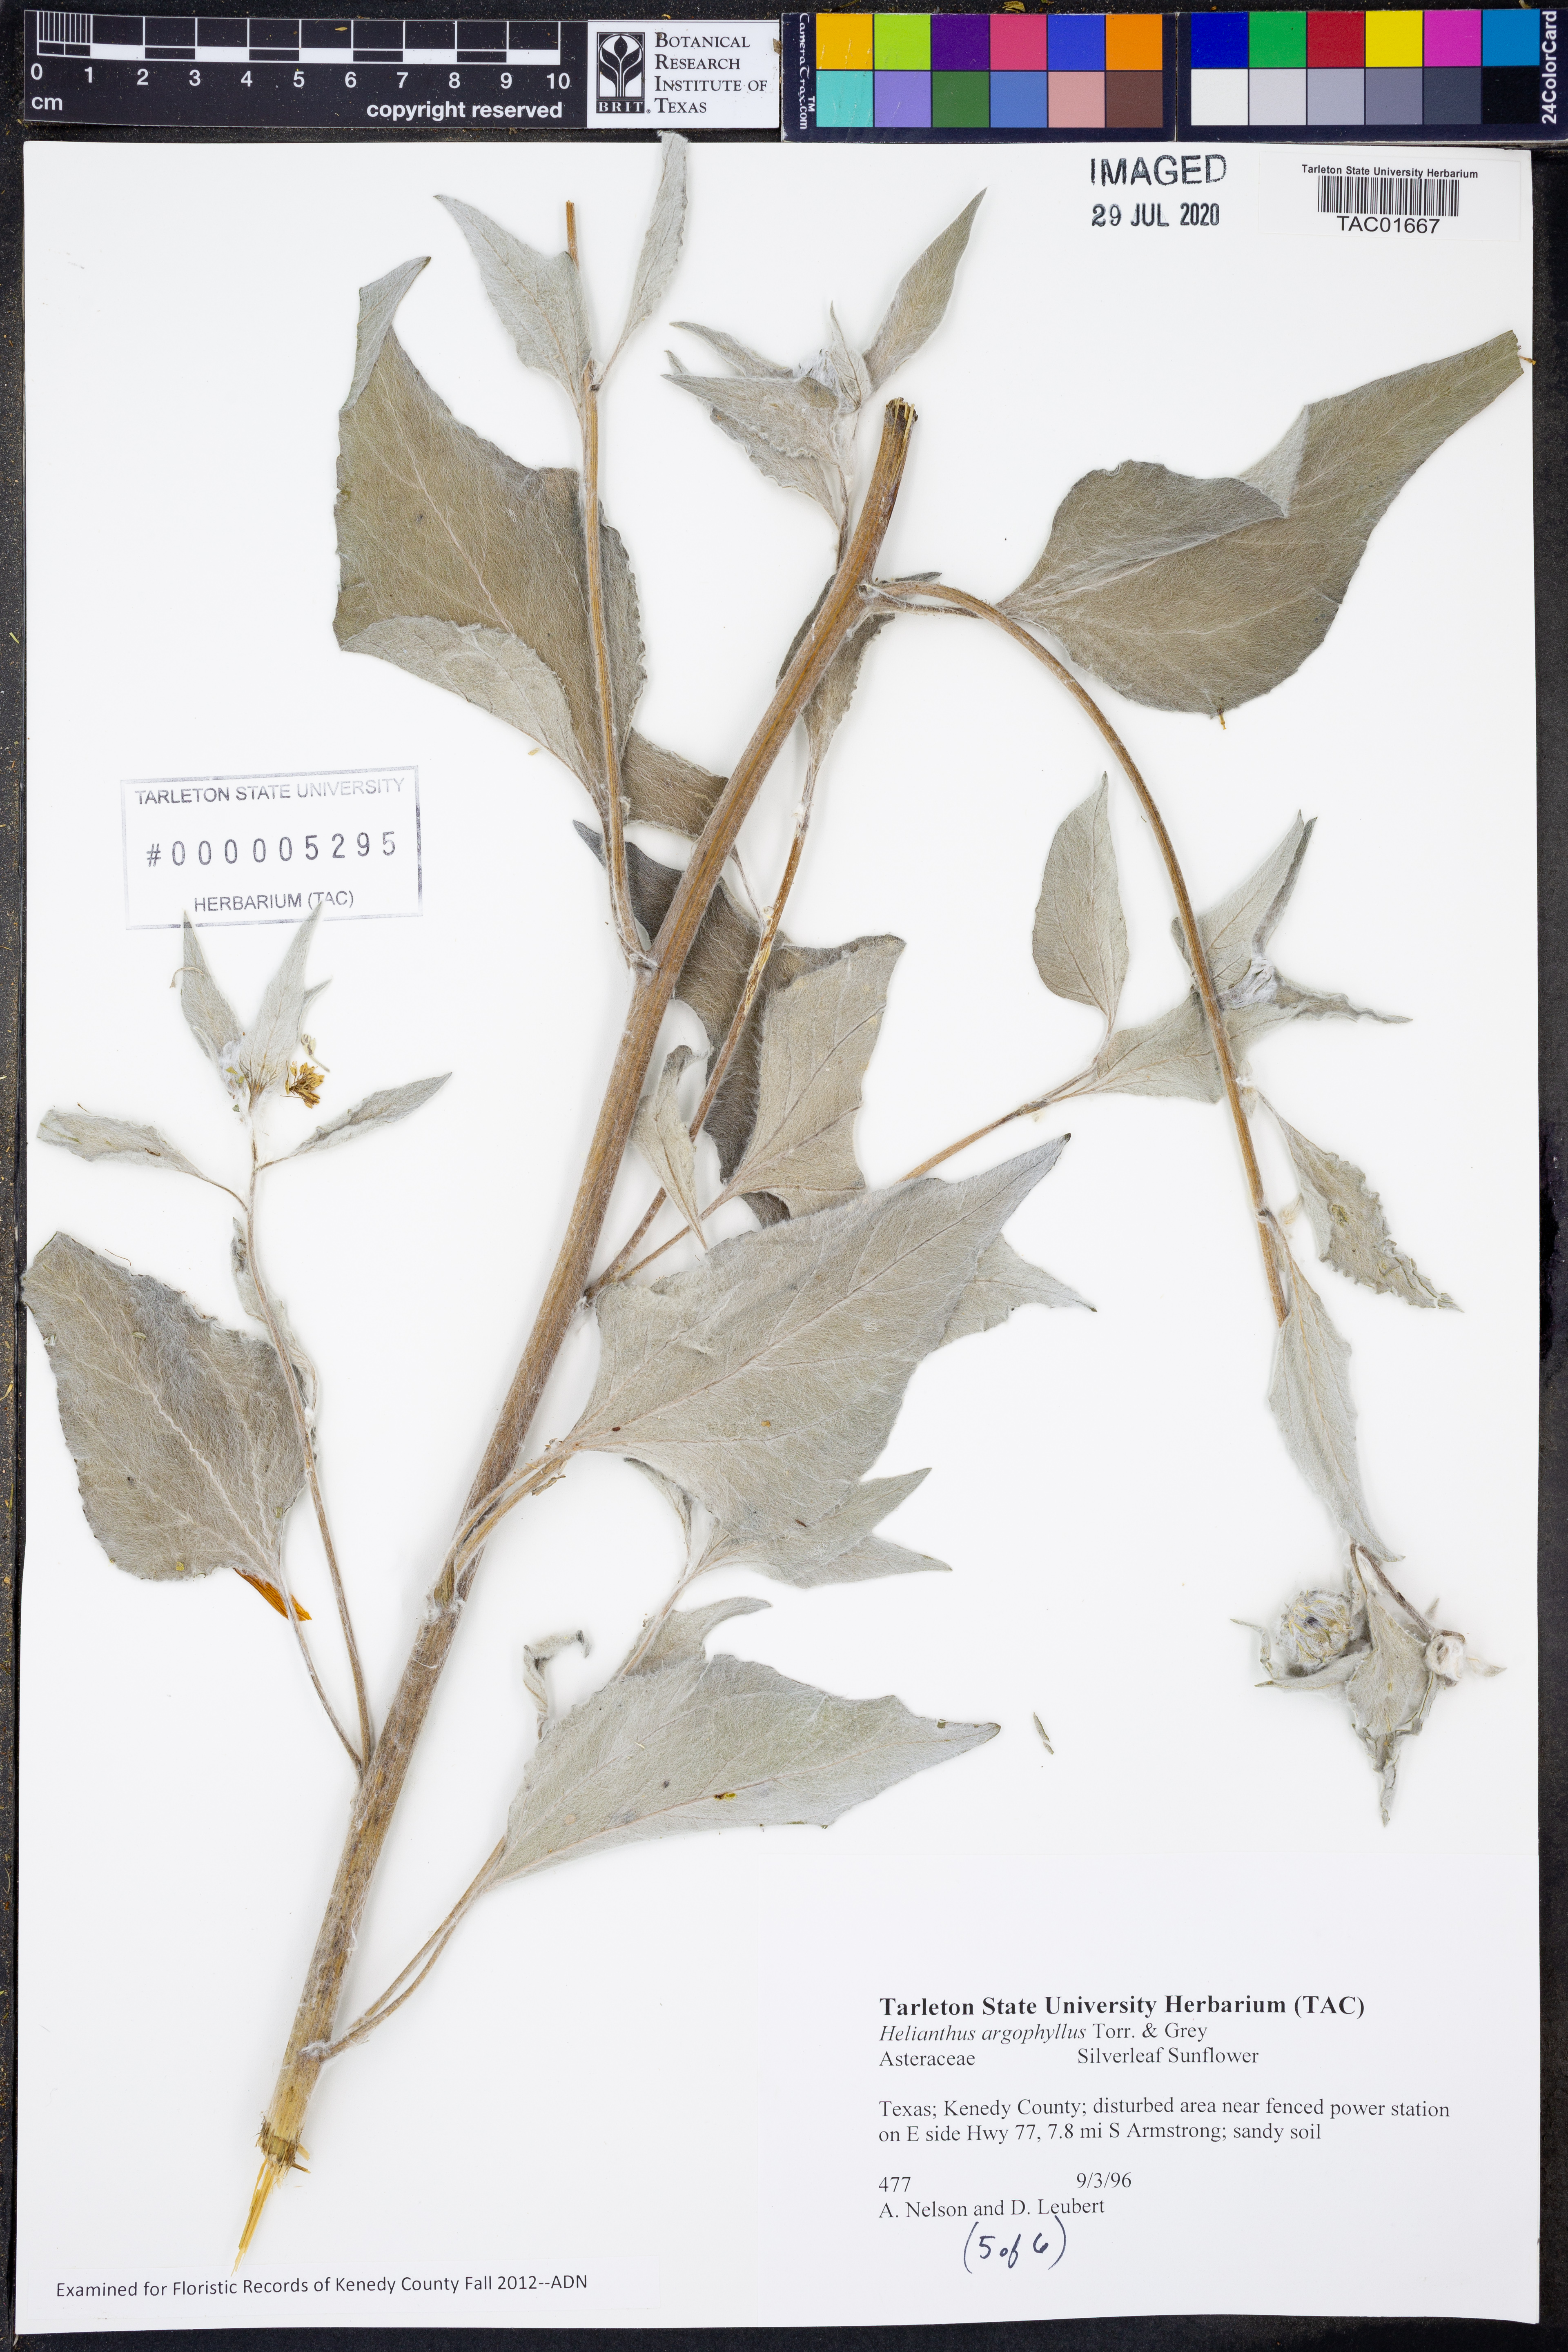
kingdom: Plantae
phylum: Tracheophyta
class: Magnoliopsida
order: Asterales
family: Asteraceae
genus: Helianthus
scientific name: Helianthus argophyllus
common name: Silverleaf sunflower
